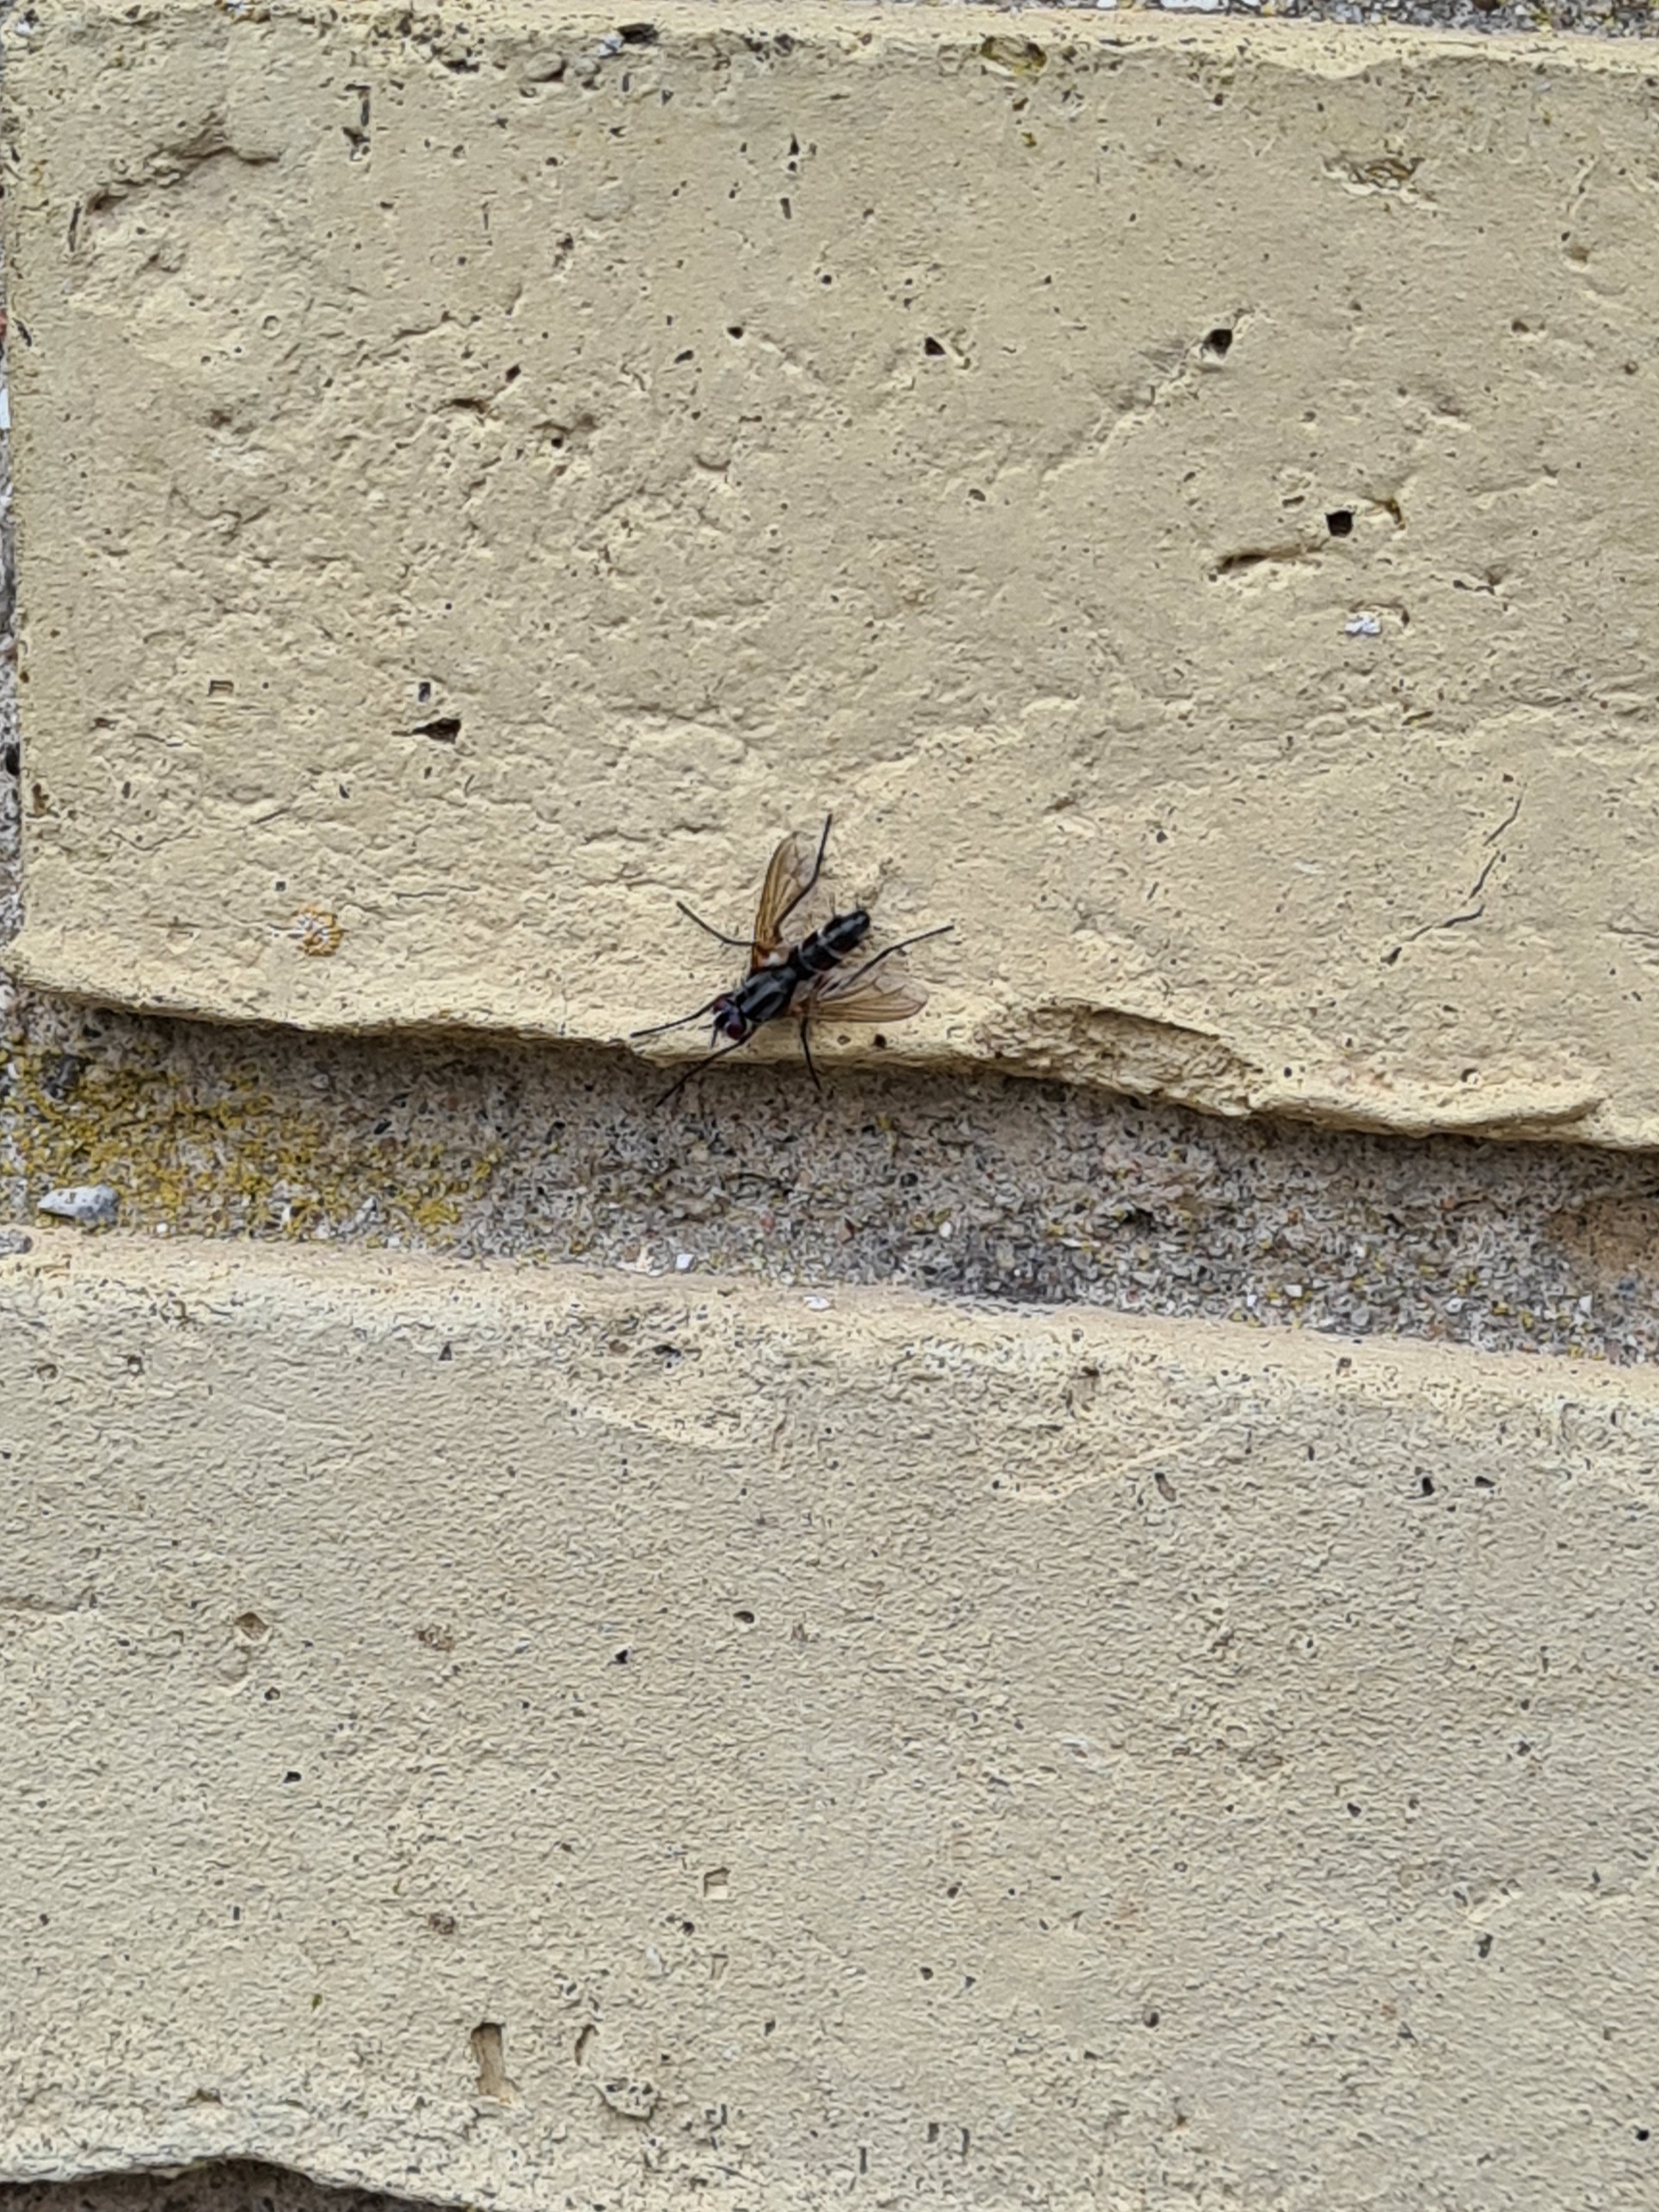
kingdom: Animalia
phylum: Arthropoda
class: Insecta
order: Diptera
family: Tachinidae
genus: Mintho
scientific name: Mintho rufiventris
